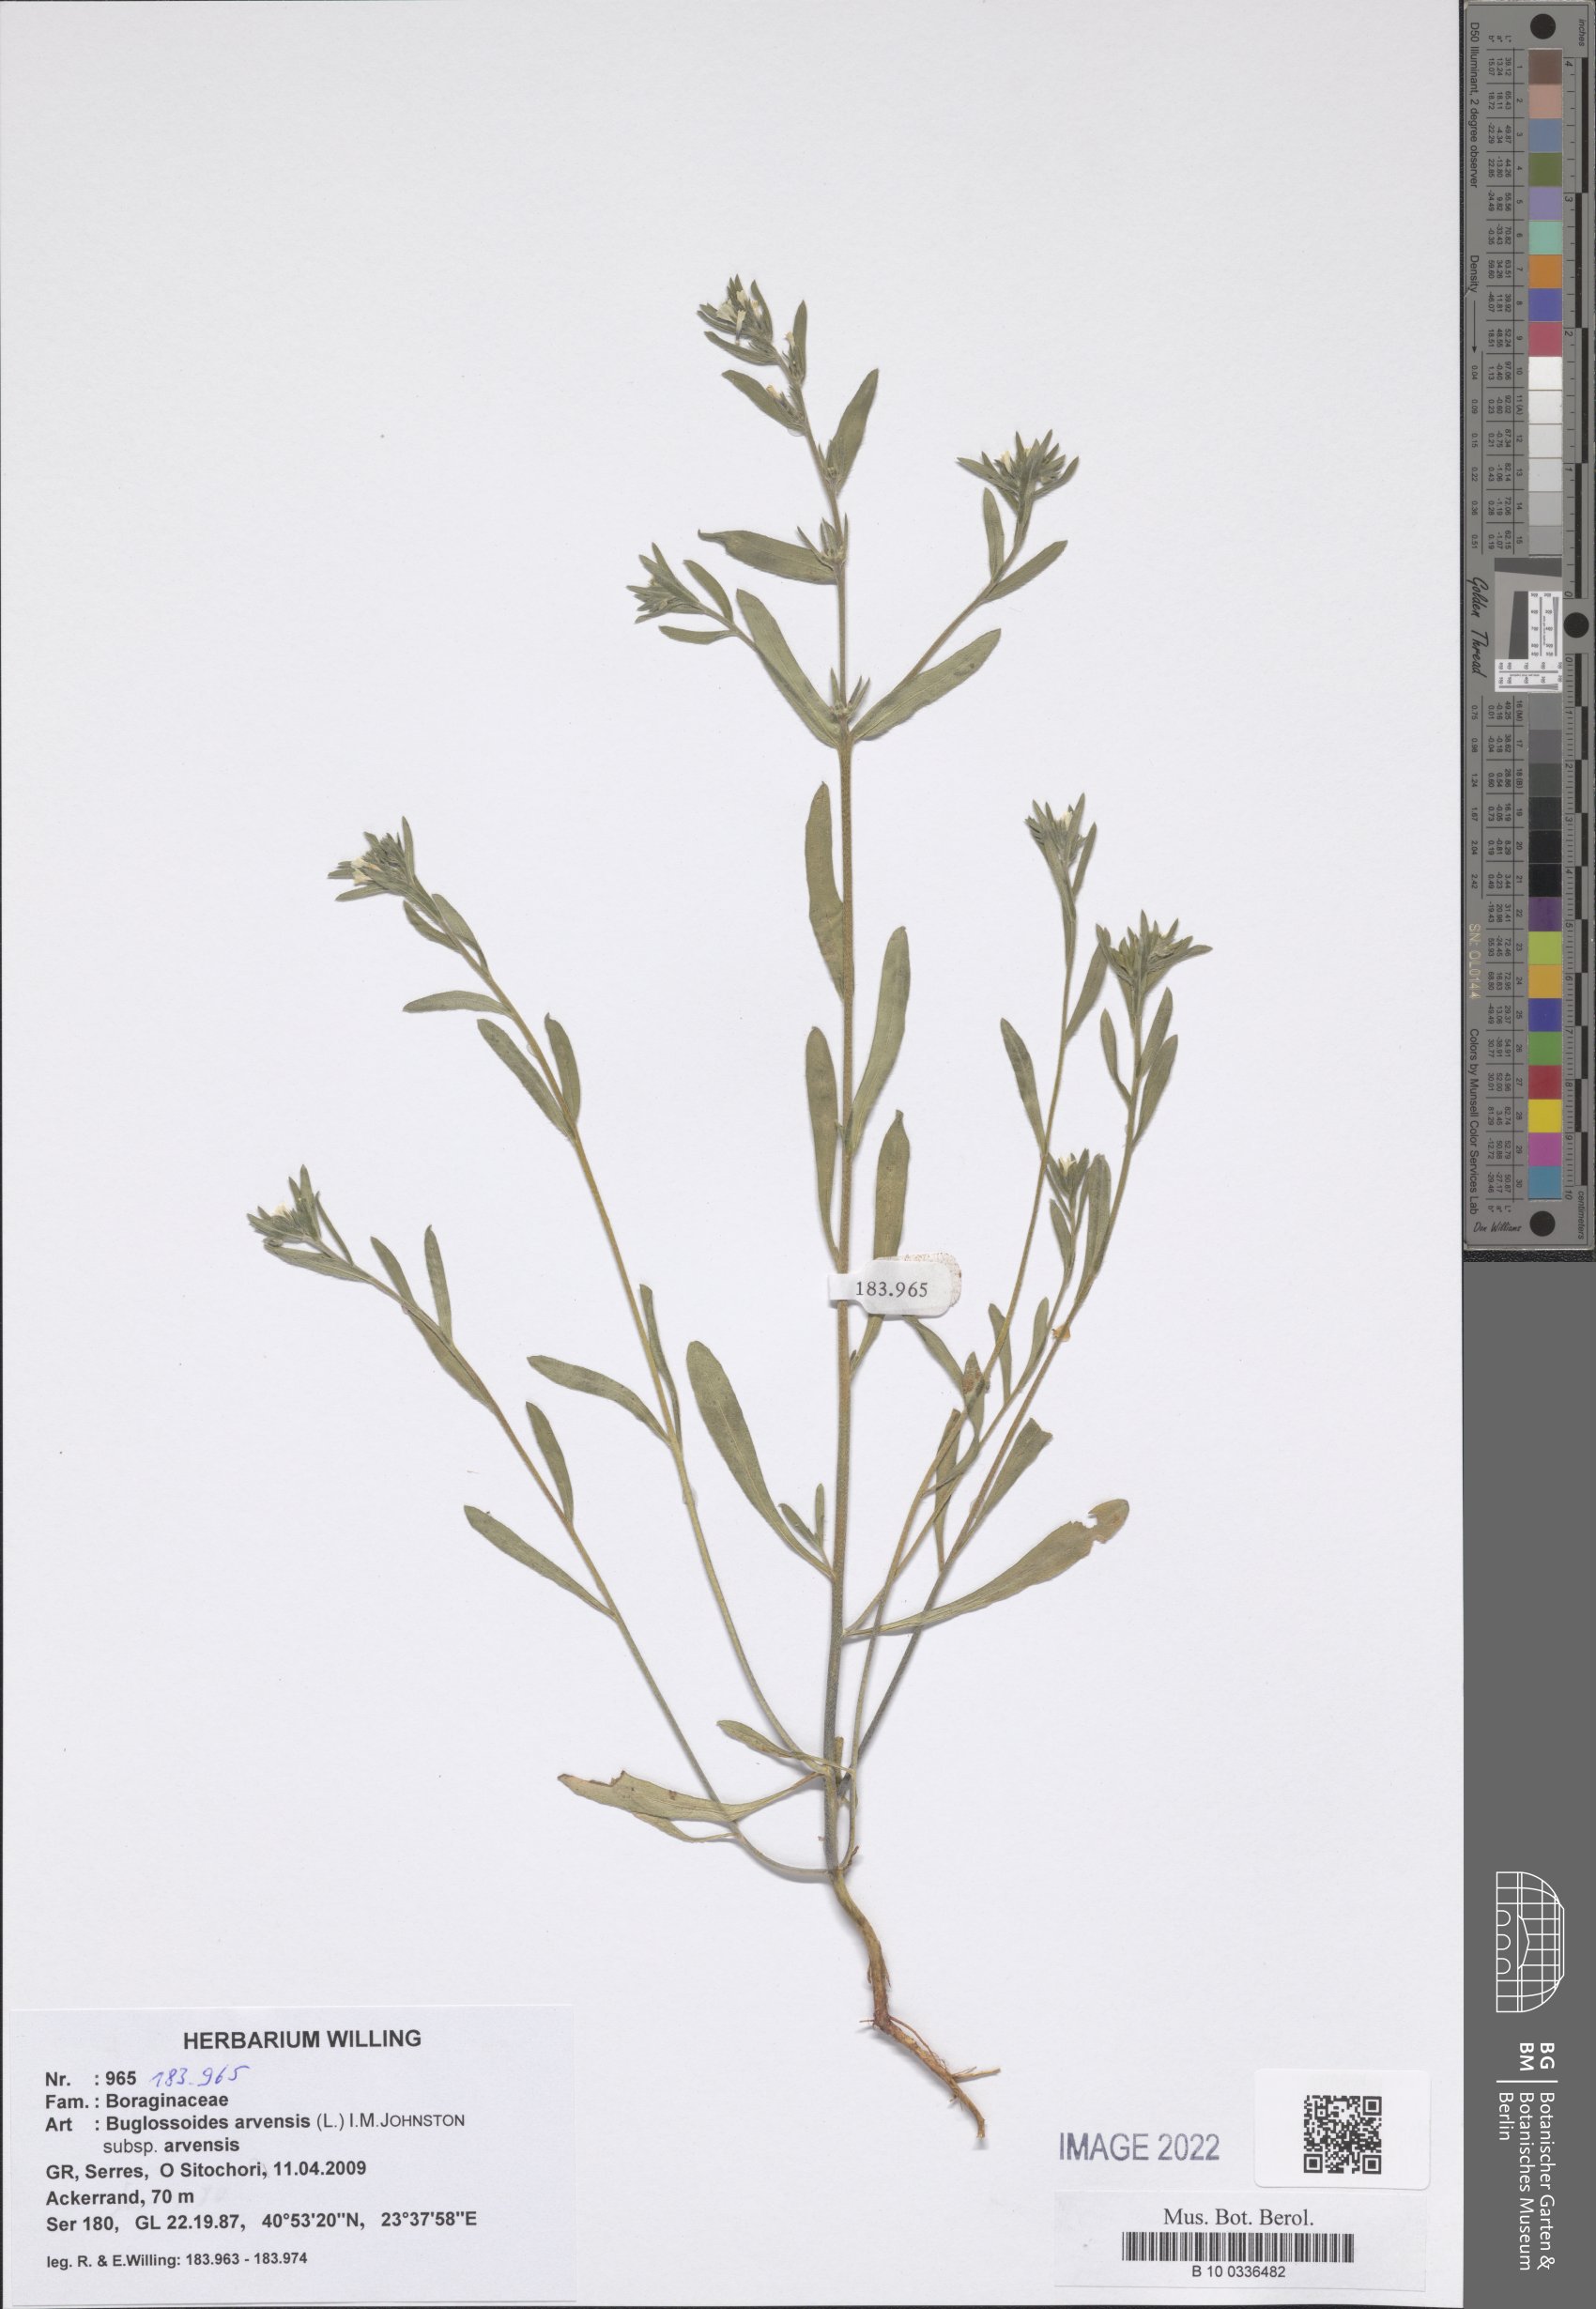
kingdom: Plantae
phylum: Tracheophyta
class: Magnoliopsida
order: Boraginales
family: Boraginaceae
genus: Buglossoides
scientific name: Buglossoides arvensis
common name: Corn gromwell
